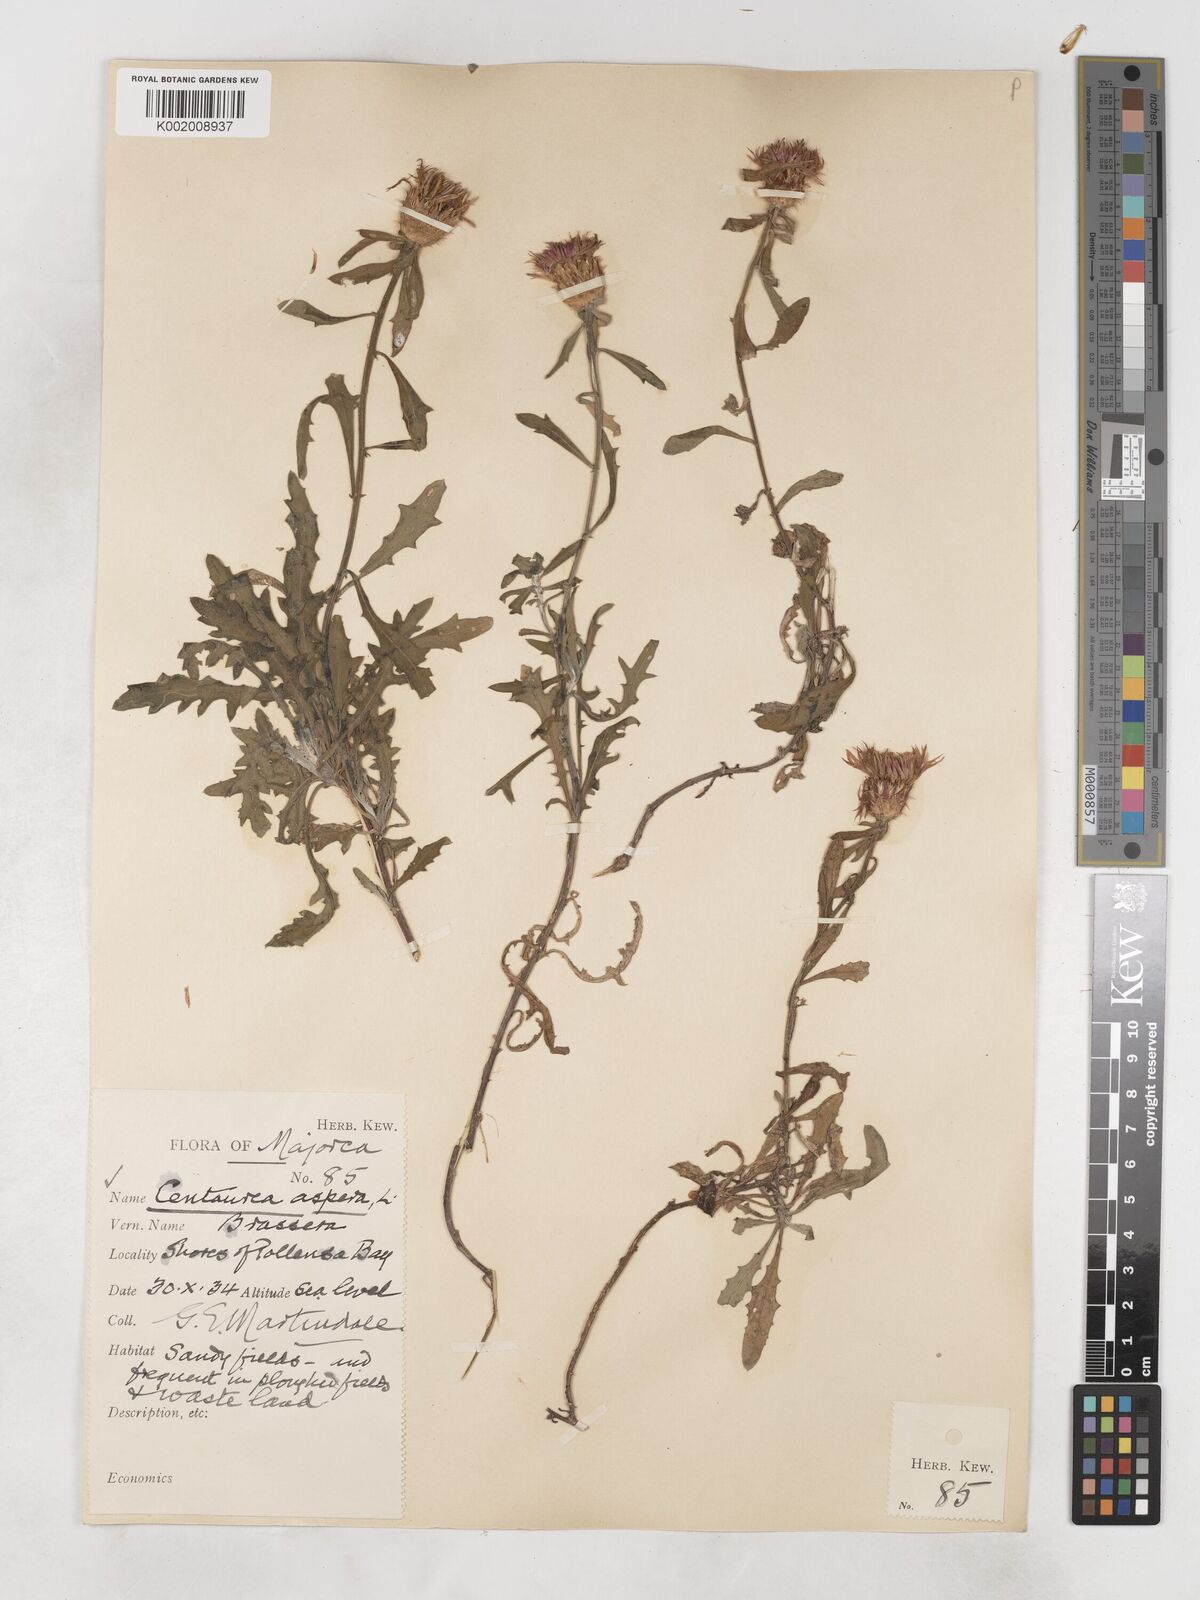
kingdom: Plantae
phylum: Tracheophyta
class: Magnoliopsida
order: Asterales
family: Asteraceae
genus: Centaurea
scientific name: Centaurea aspera
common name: Rough star-thistle
